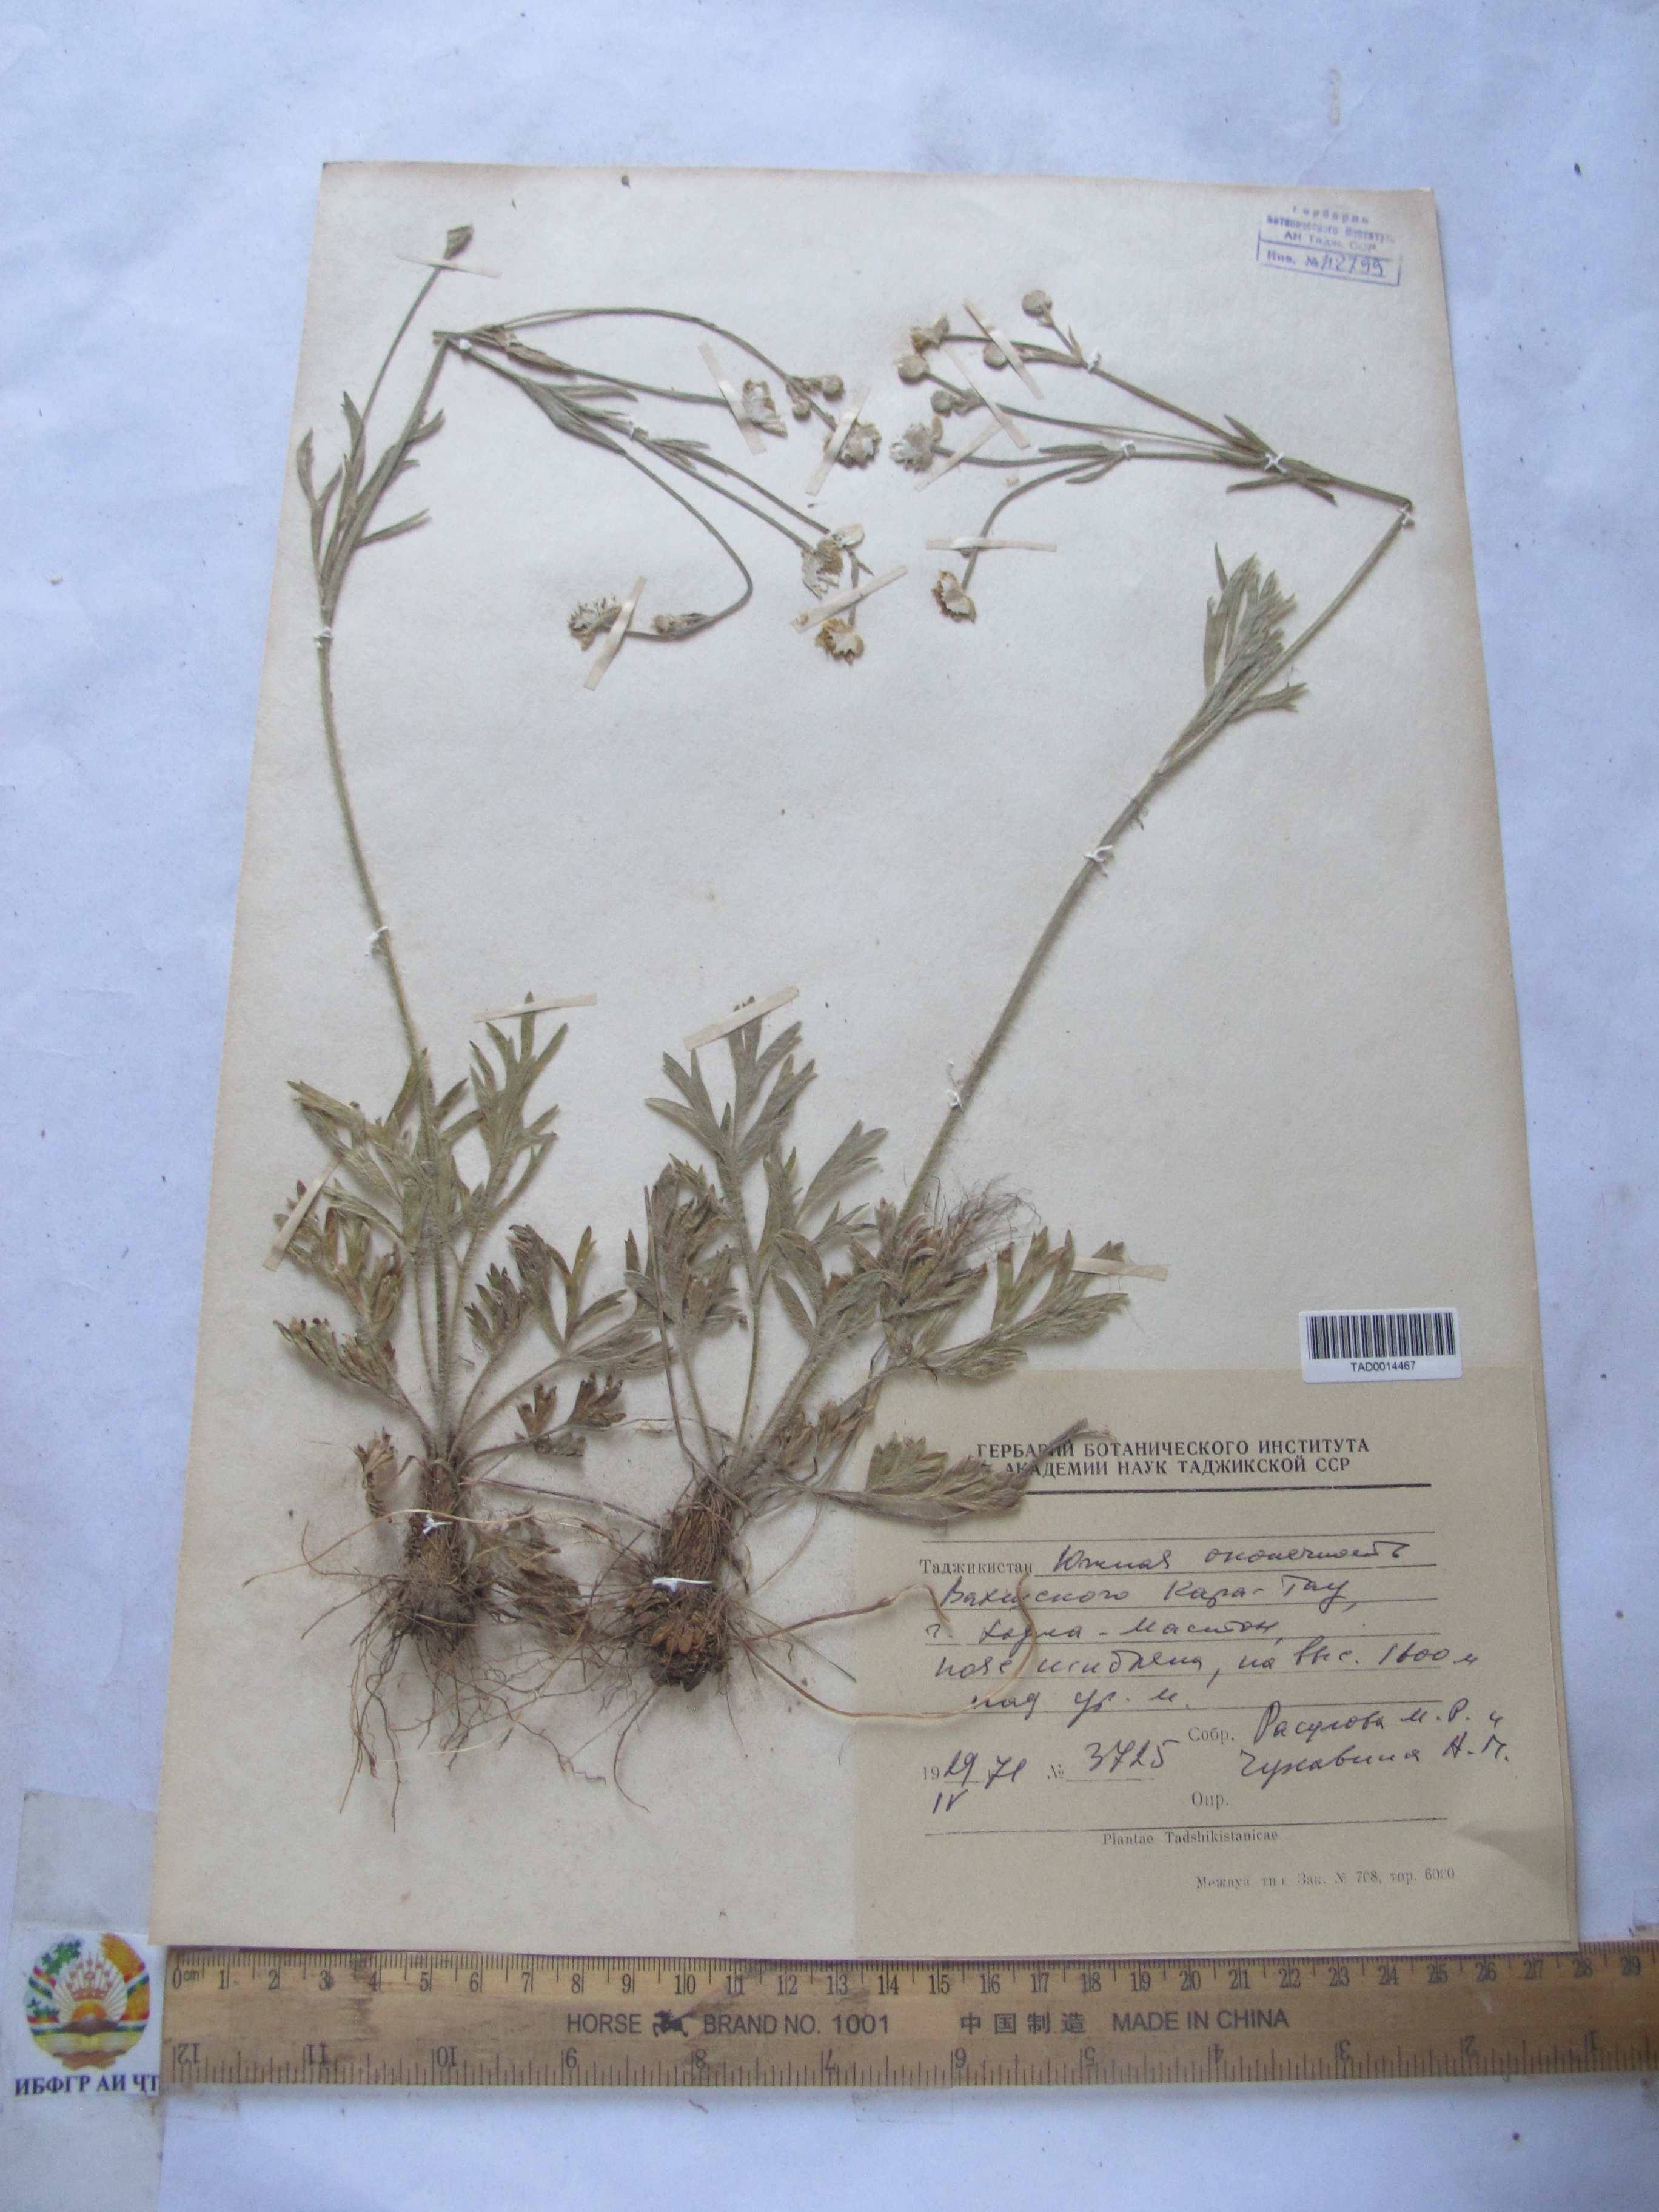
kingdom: Plantae
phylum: Tracheophyta
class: Magnoliopsida
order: Ranunculales
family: Ranunculaceae
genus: Ranunculus
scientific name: Ranunculus leptorrhynchus
